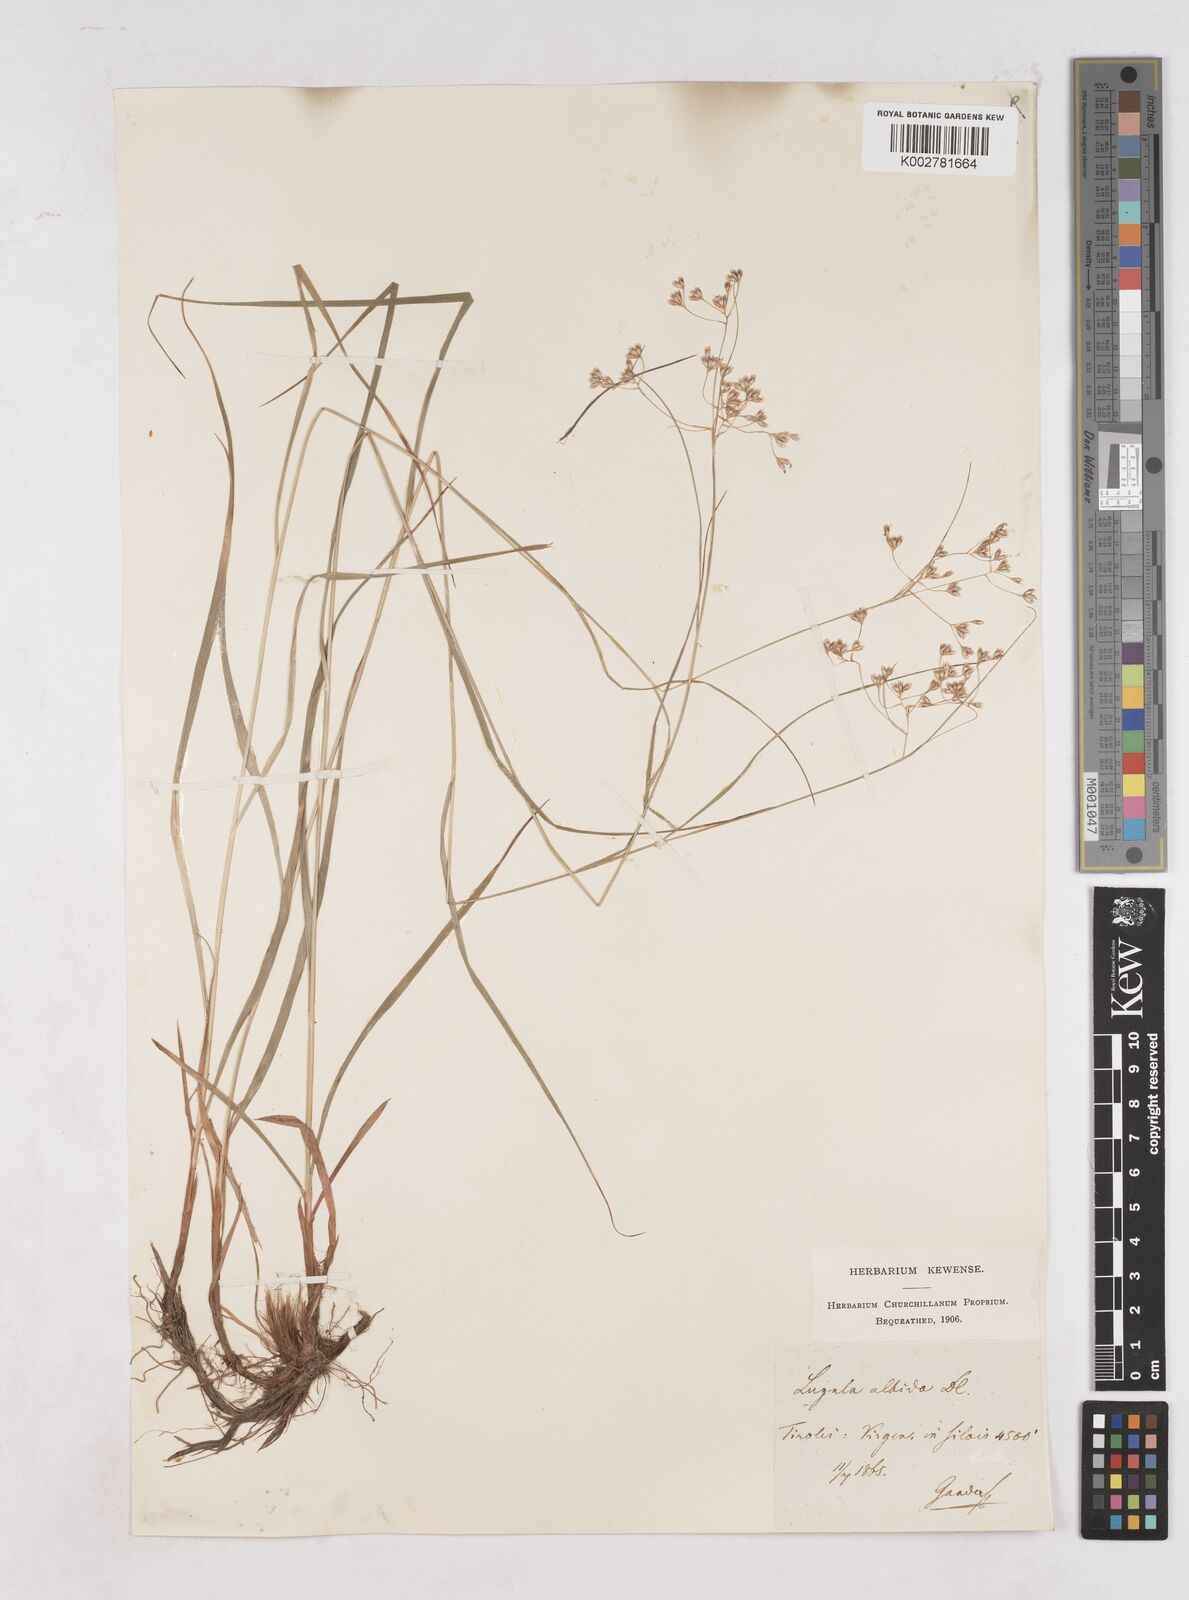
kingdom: Plantae
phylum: Tracheophyta
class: Liliopsida
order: Poales
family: Juncaceae
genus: Luzula
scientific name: Luzula luzuloides
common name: White wood-rush
